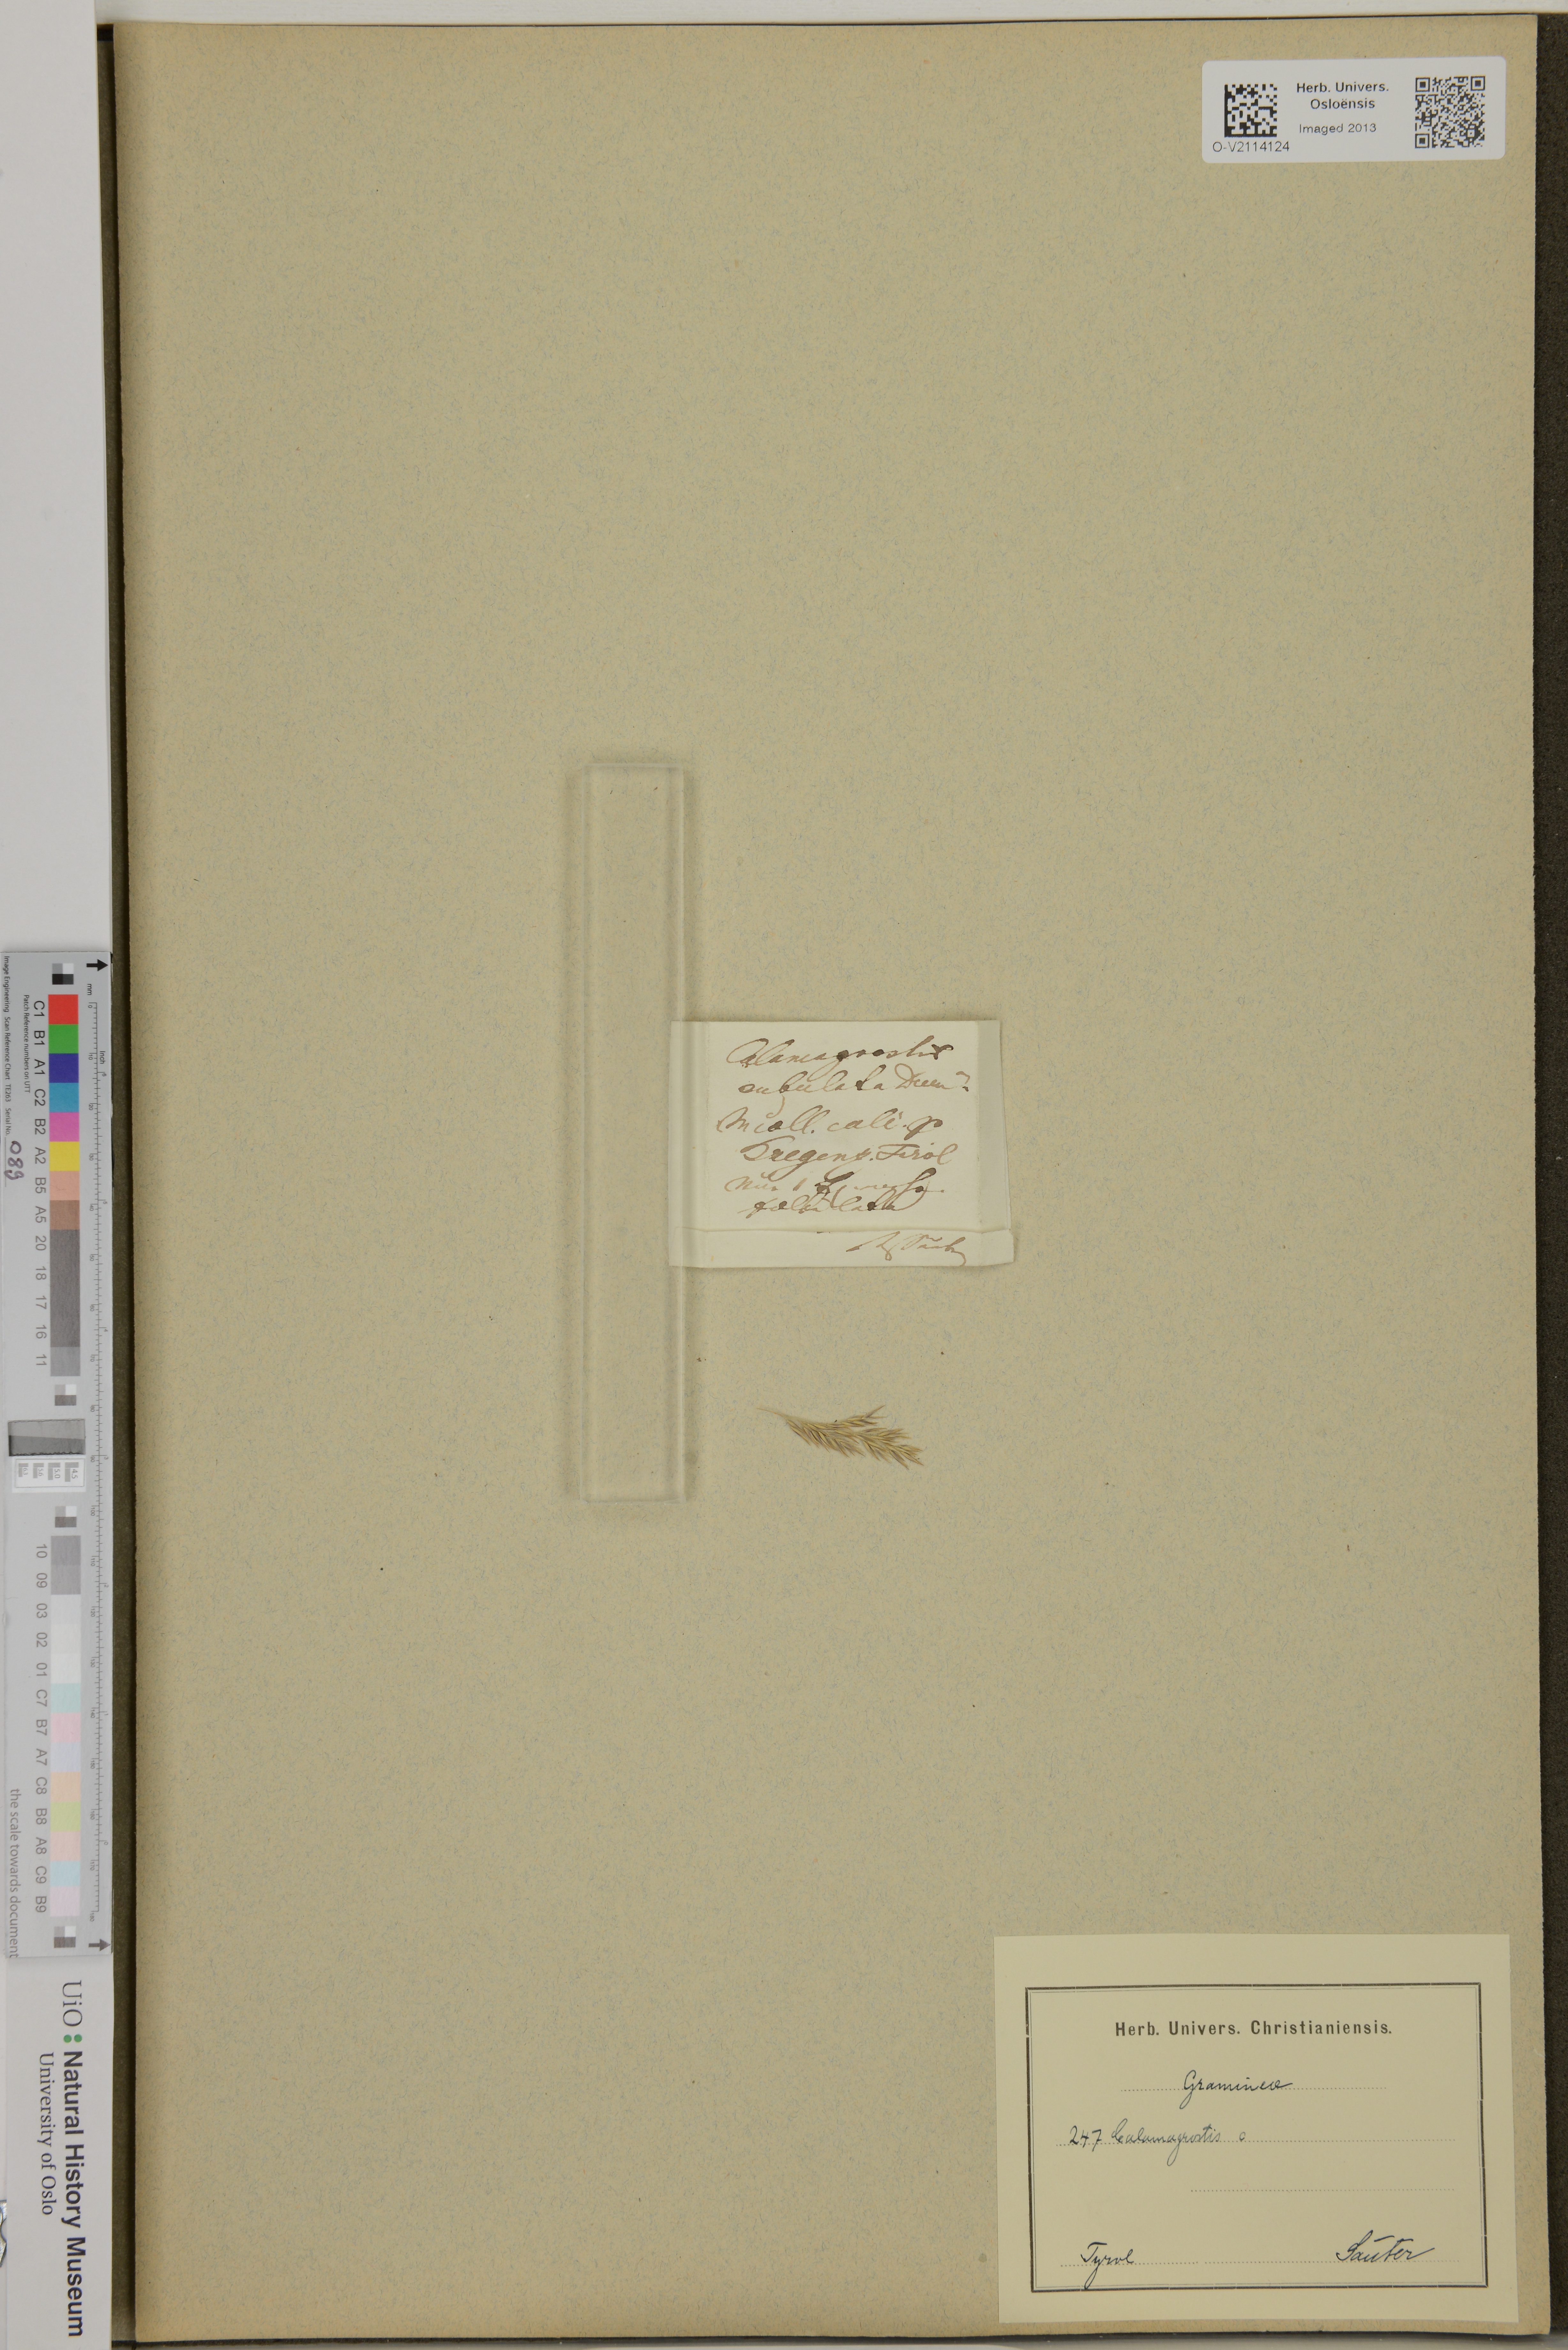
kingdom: Plantae
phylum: Tracheophyta
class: Liliopsida
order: Poales
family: Poaceae
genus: Calamagrostis
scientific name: Calamagrostis
